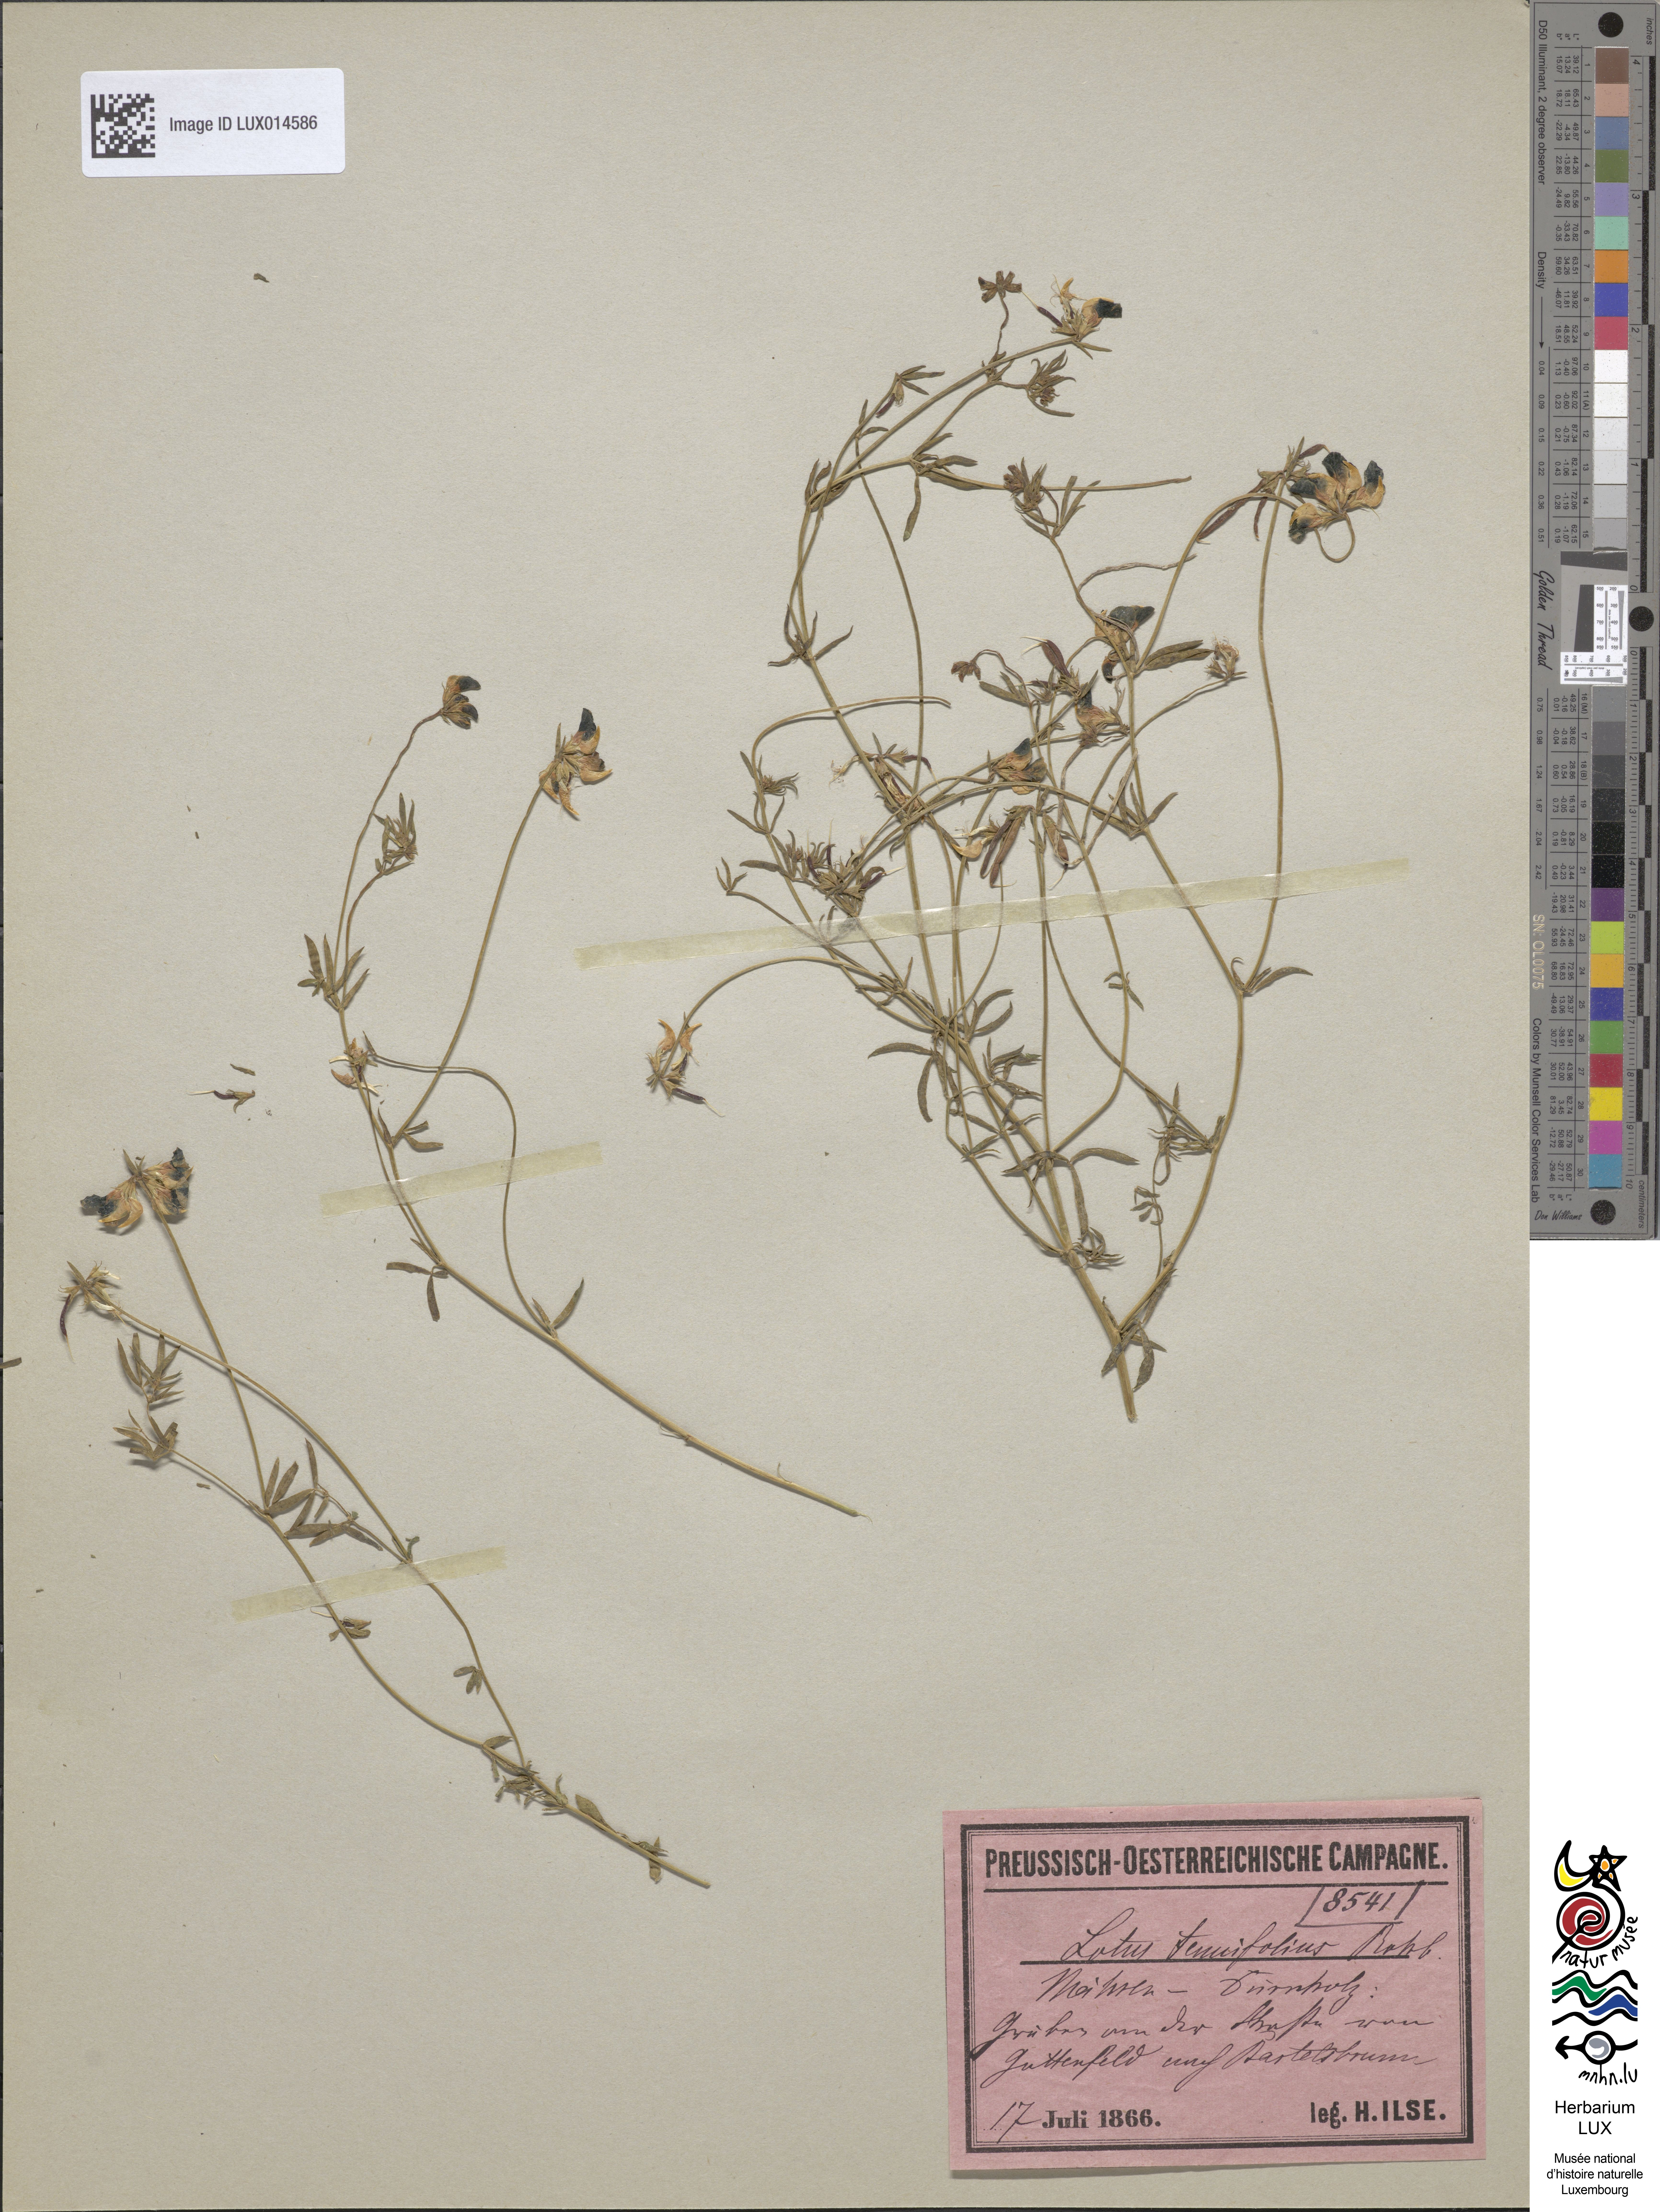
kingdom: Plantae
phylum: Tracheophyta
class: Magnoliopsida
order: Fabales
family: Fabaceae
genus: Lotus
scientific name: Lotus tenuis
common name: Narrow-leaved bird's-foot-trefoil
